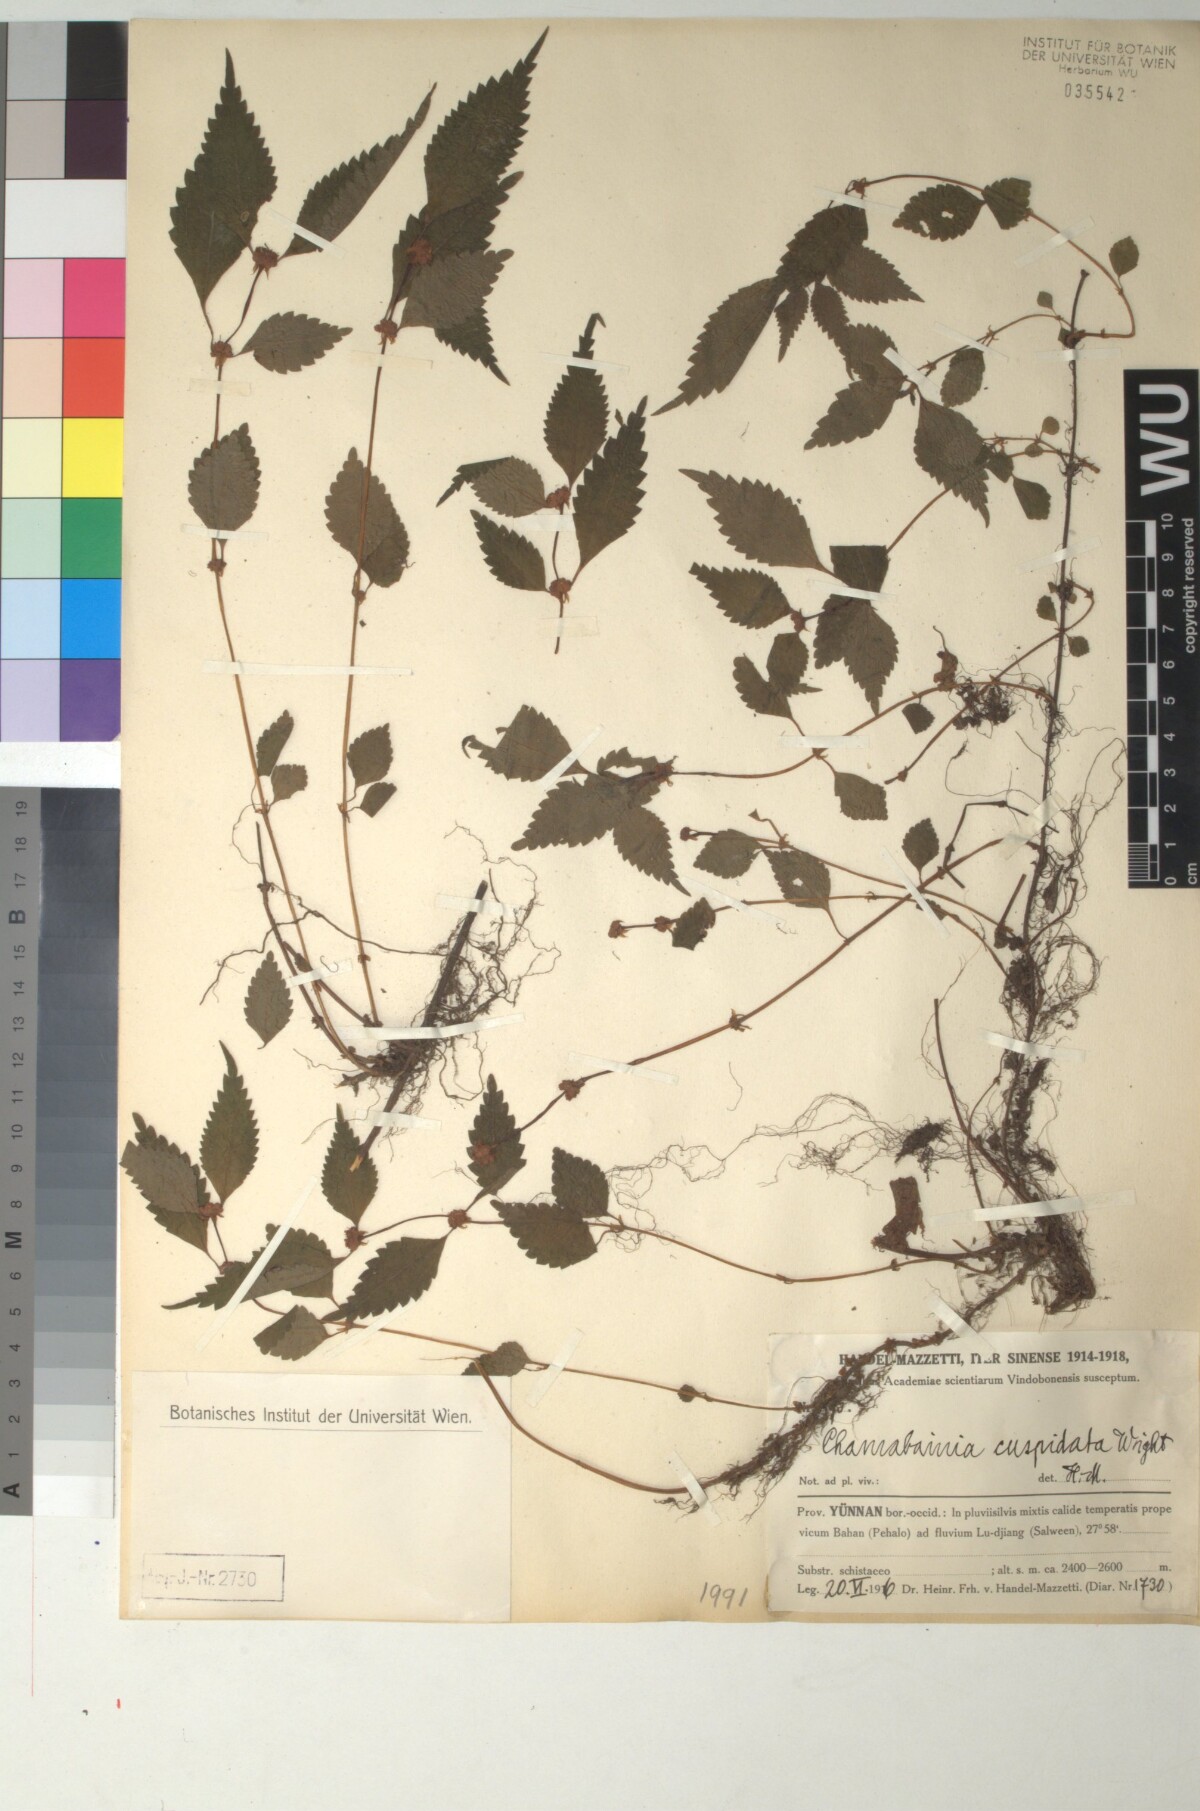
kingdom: Plantae
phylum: Tracheophyta
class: Magnoliopsida
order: Rosales
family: Urticaceae
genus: Chamabainia
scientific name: Chamabainia cuspidata
